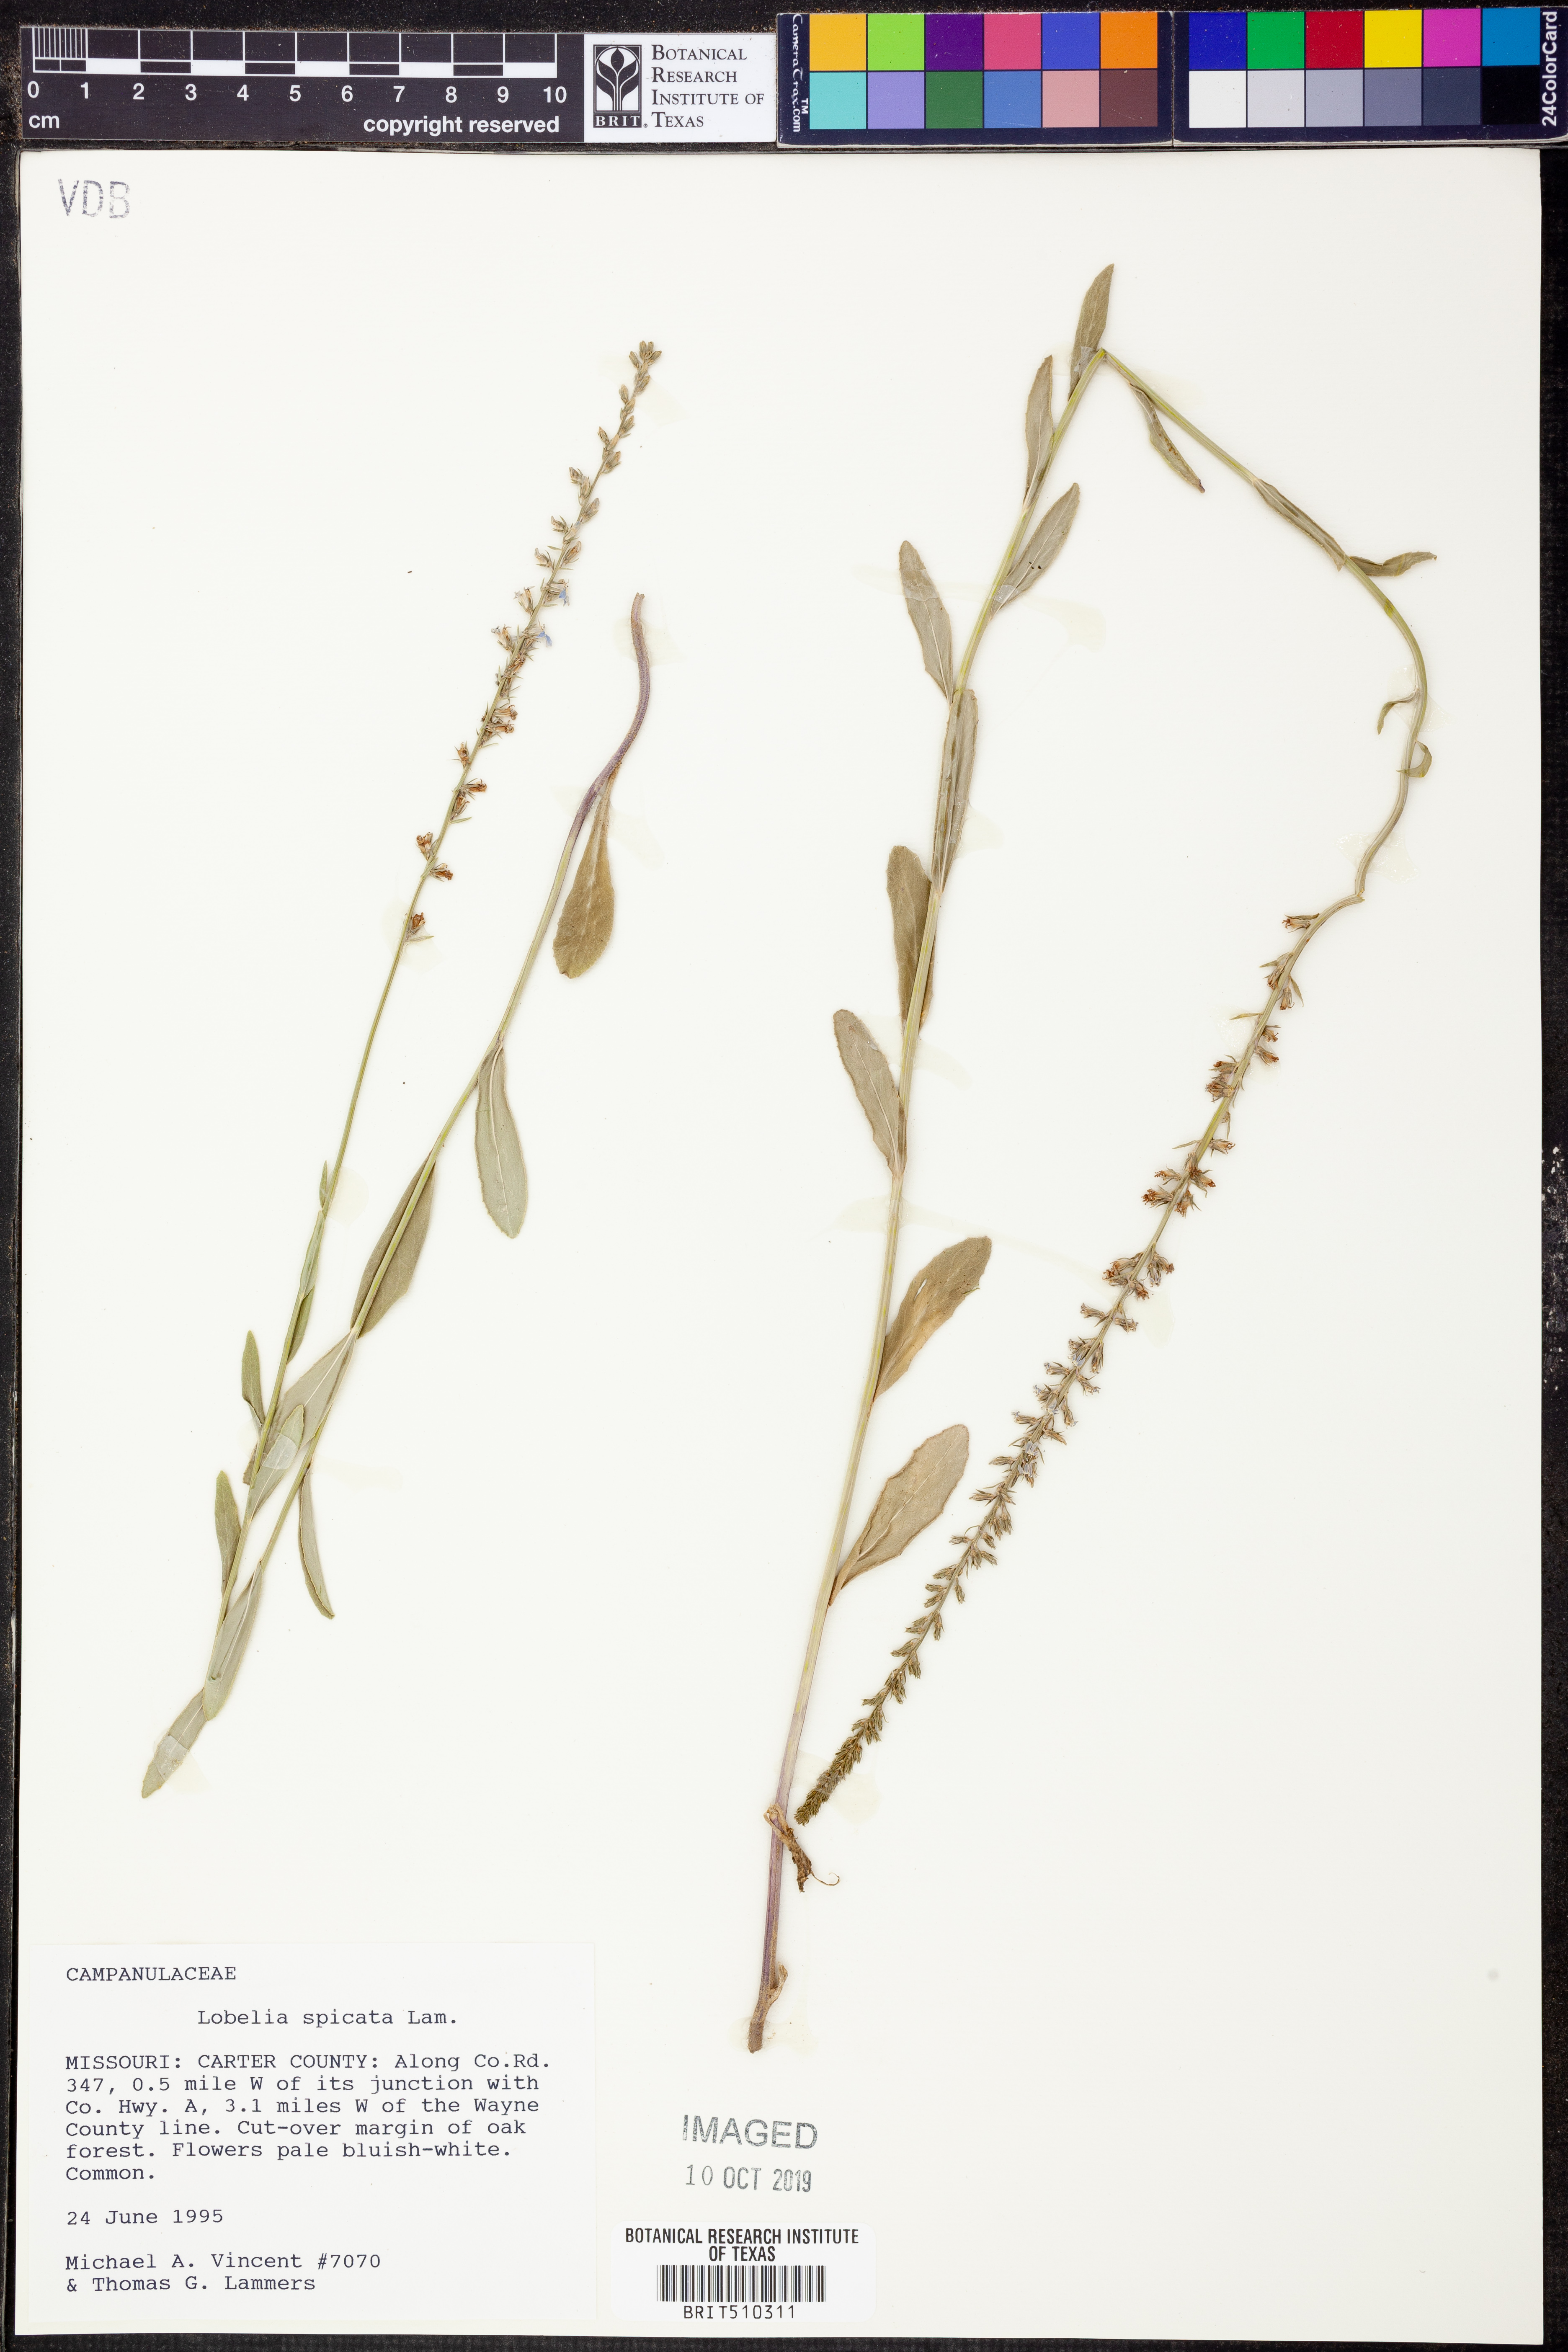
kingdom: Plantae
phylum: Tracheophyta
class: Magnoliopsida
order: Asterales
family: Campanulaceae
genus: Lobelia
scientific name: Lobelia spicata
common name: Pale-spike lobelia
